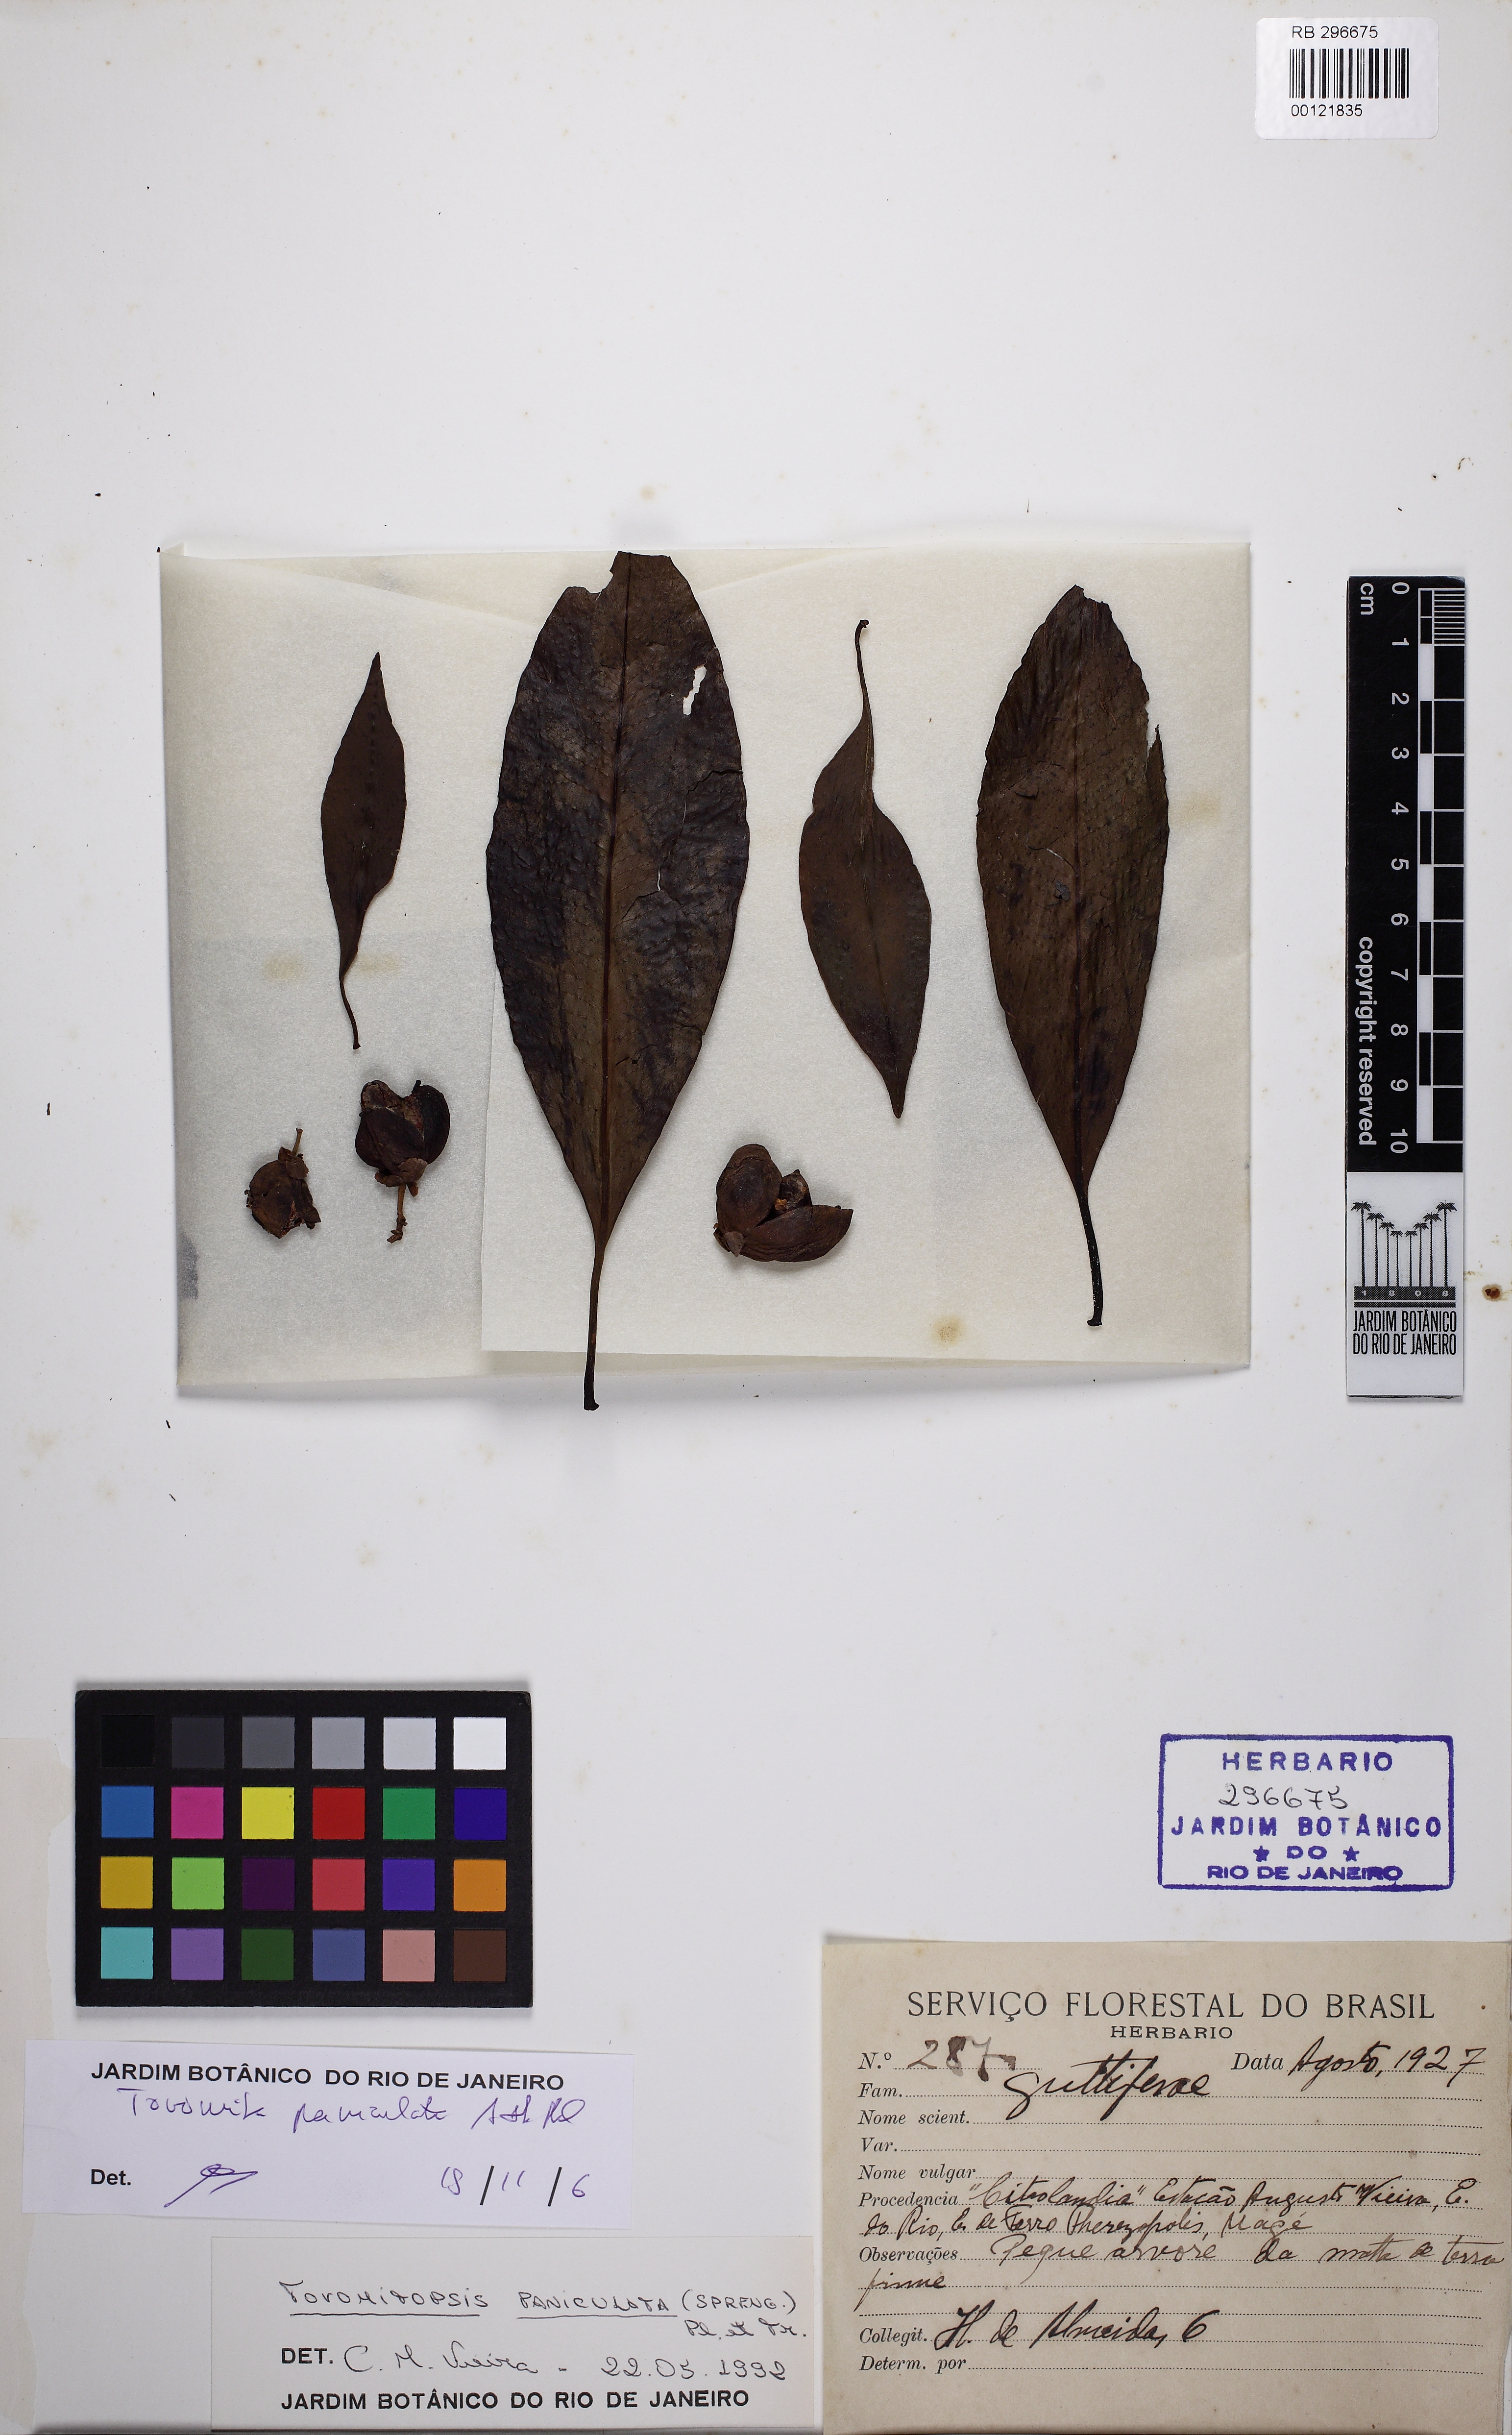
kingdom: Plantae
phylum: Tracheophyta
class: Magnoliopsida
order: Malpighiales
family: Clusiaceae
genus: Chrysochlamys
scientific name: Chrysochlamys paniculata
